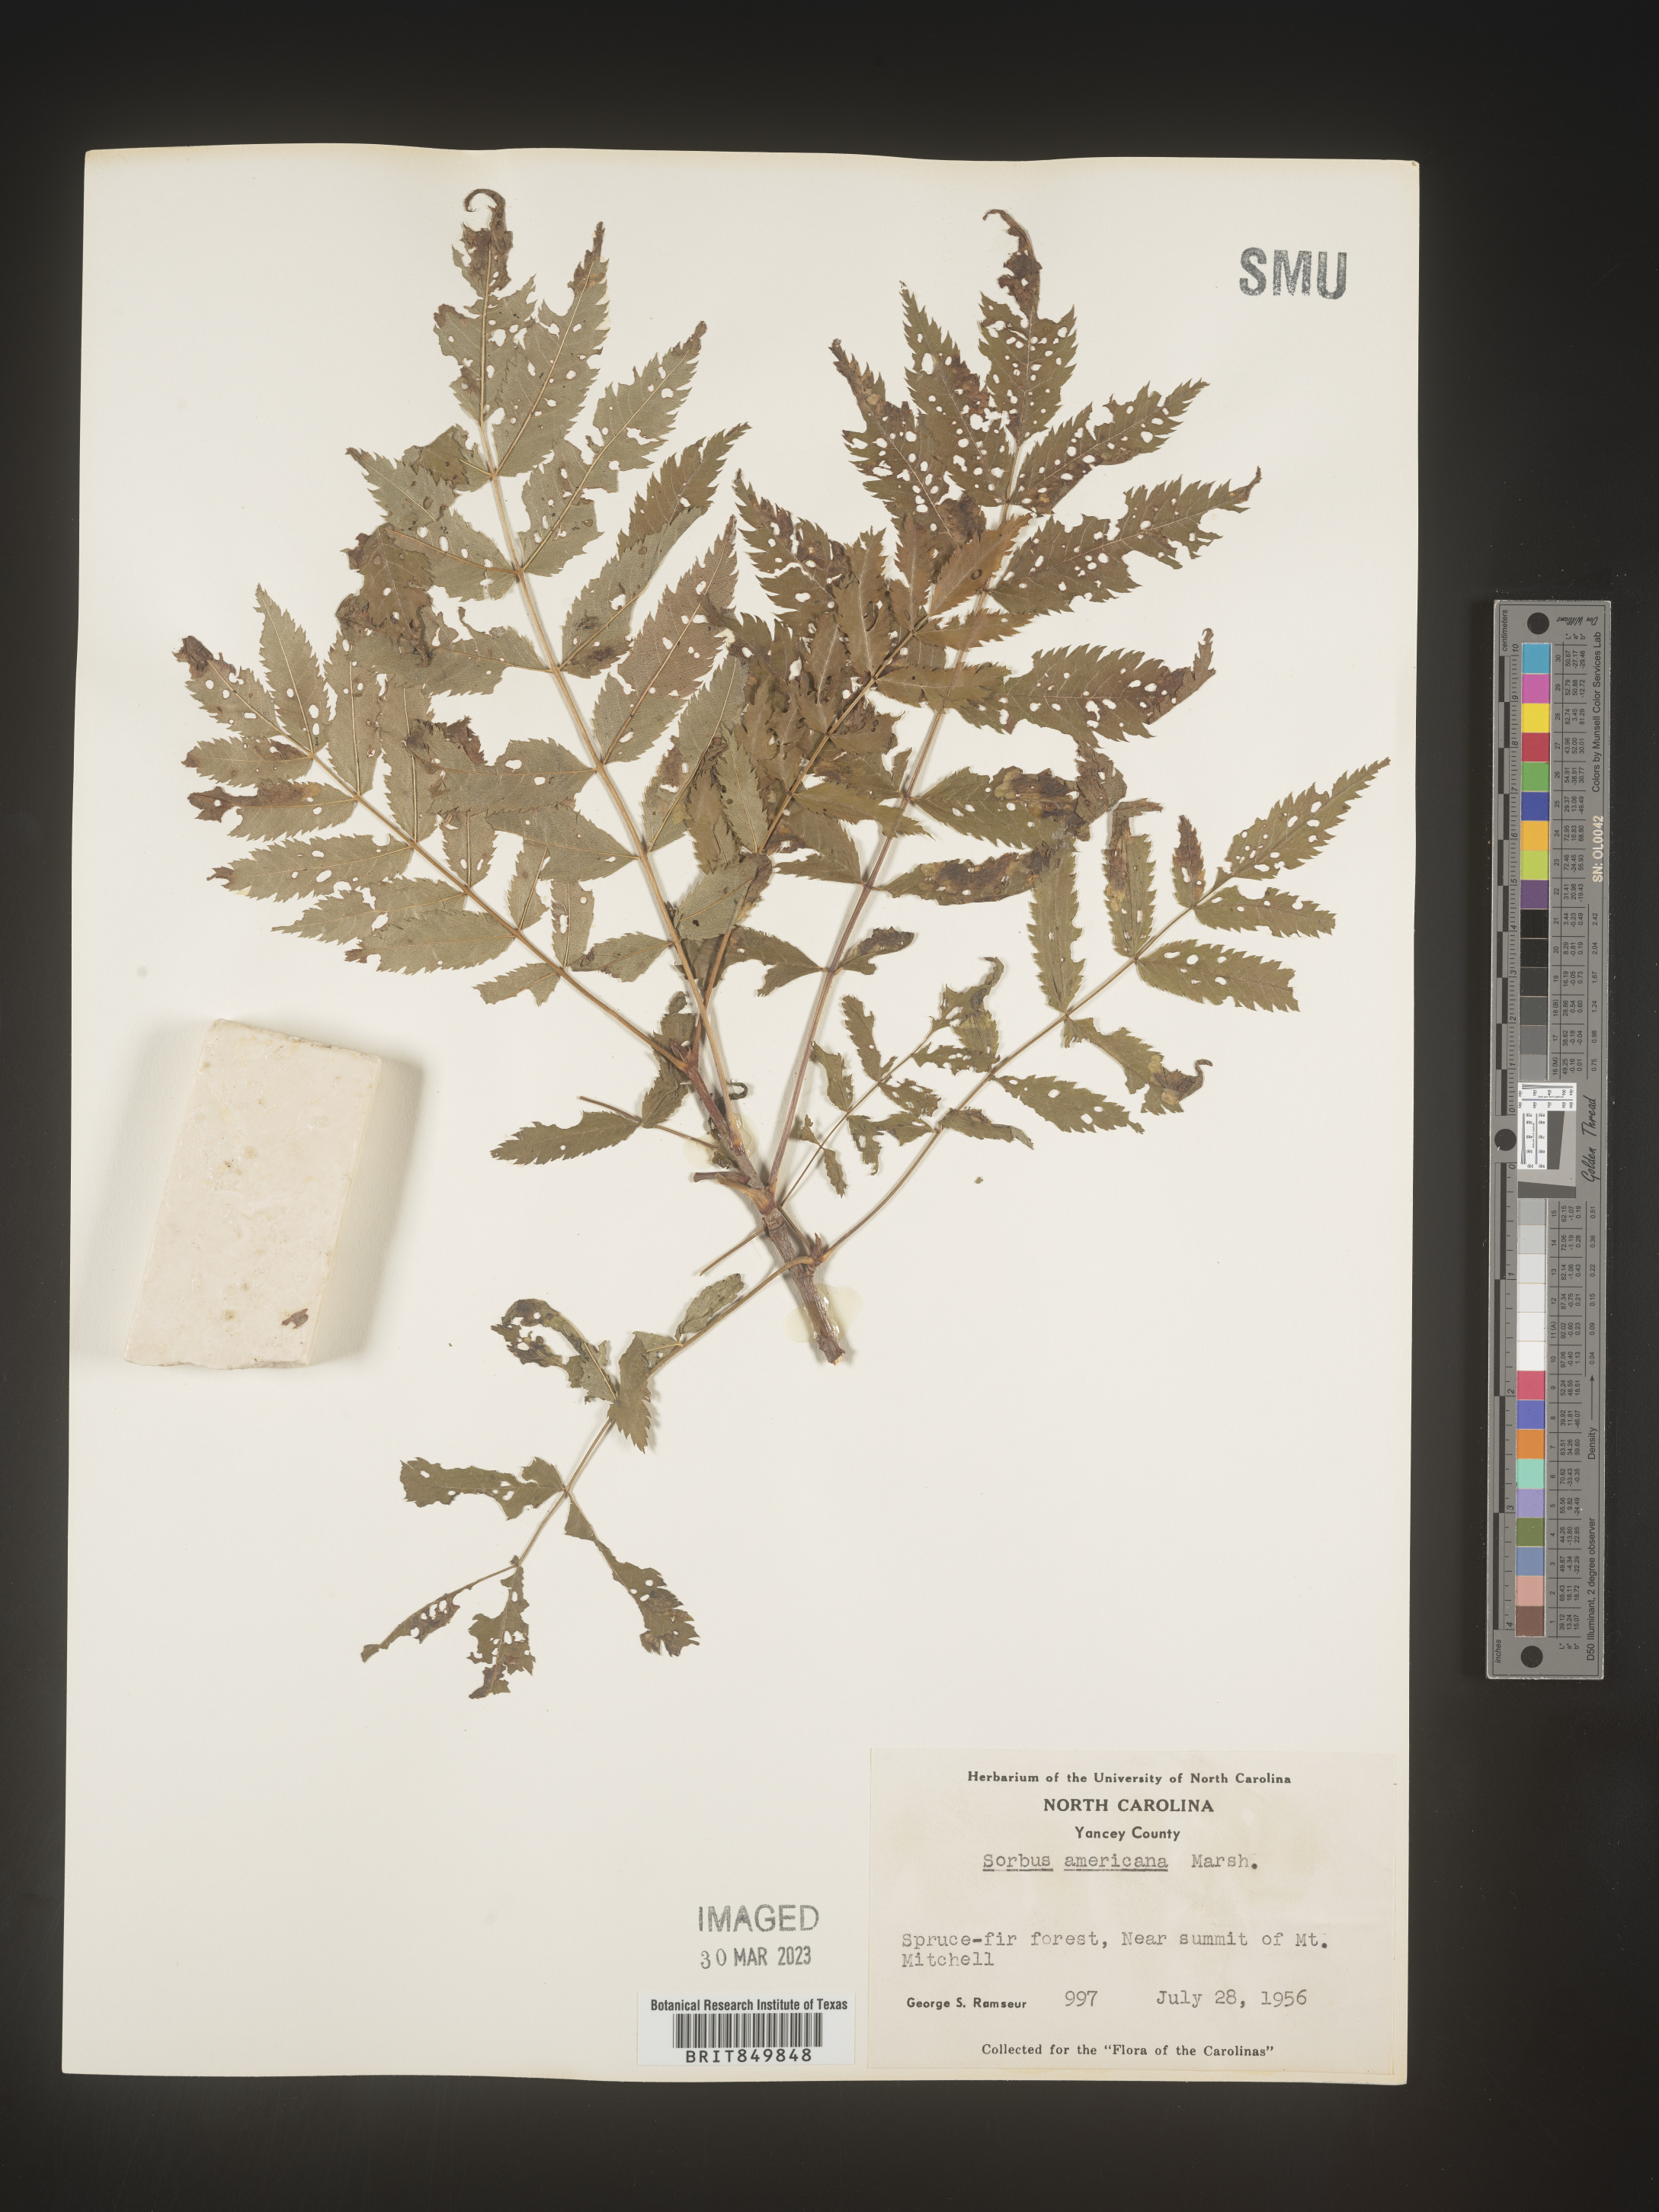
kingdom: Plantae
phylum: Tracheophyta
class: Magnoliopsida
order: Rosales
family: Rosaceae
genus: Sorbus
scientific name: Sorbus
